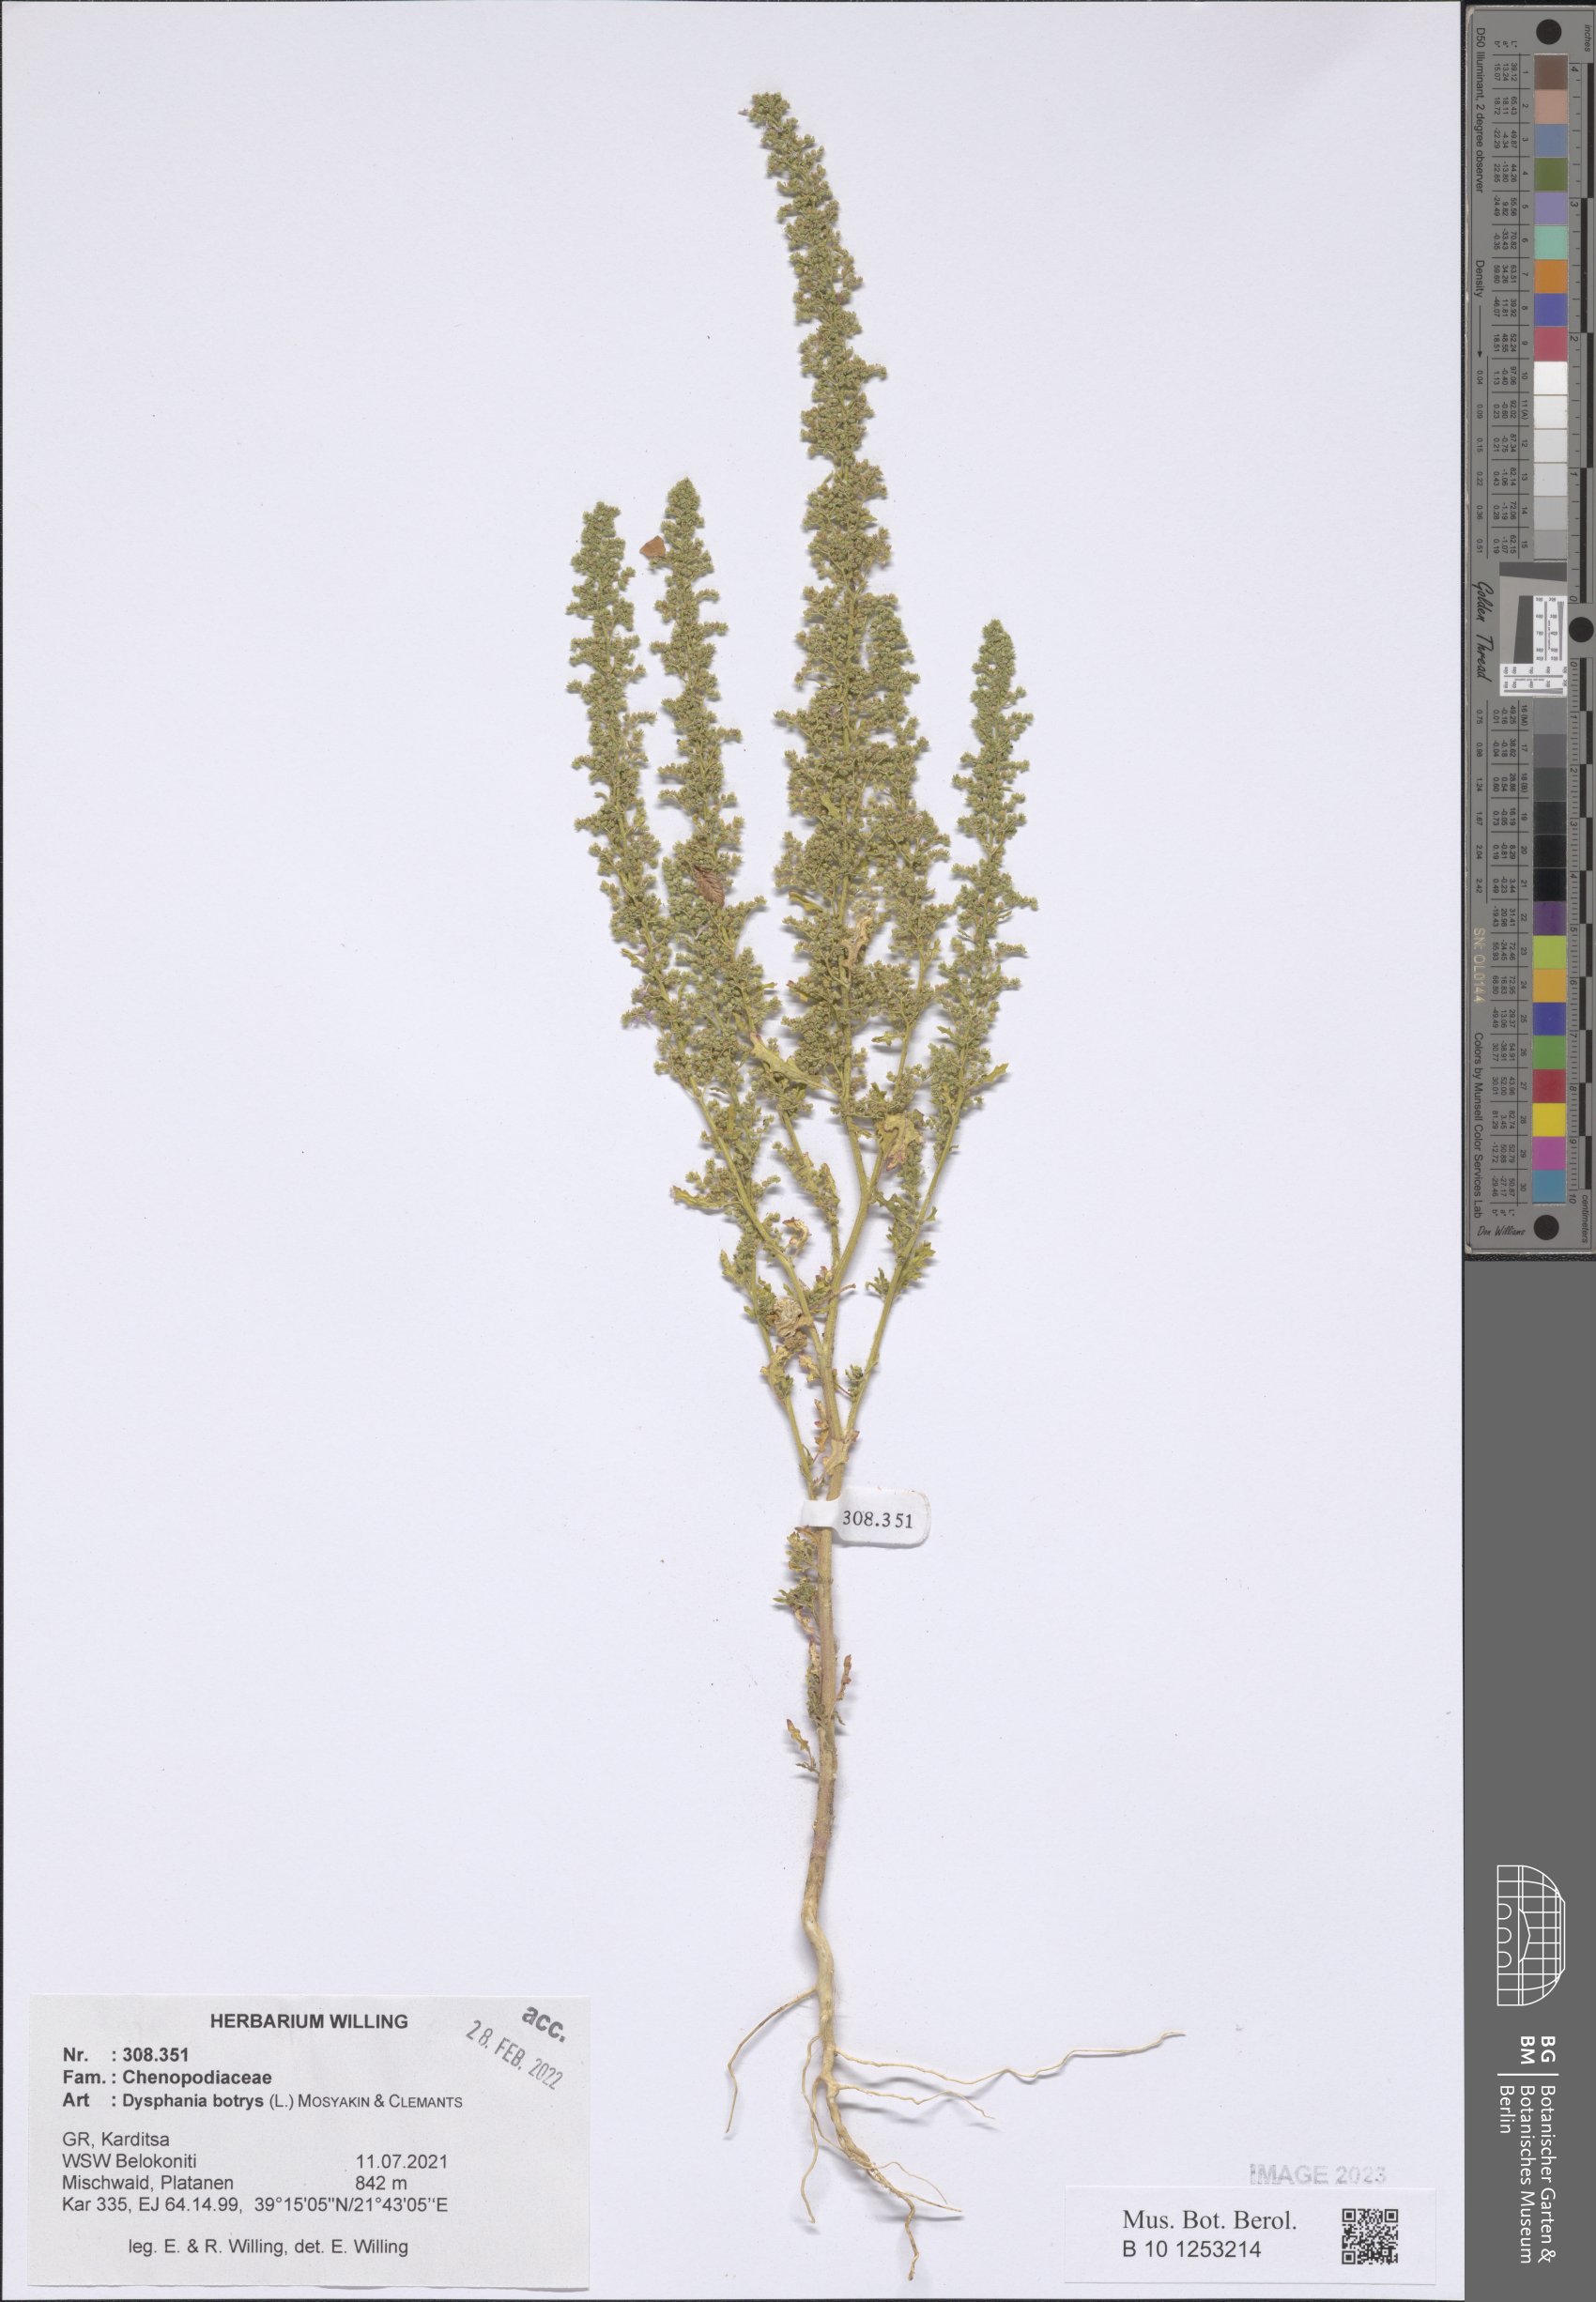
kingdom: Plantae
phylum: Tracheophyta
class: Magnoliopsida
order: Caryophyllales
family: Amaranthaceae
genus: Dysphania
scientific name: Dysphania botrys
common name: Feather-geranium
